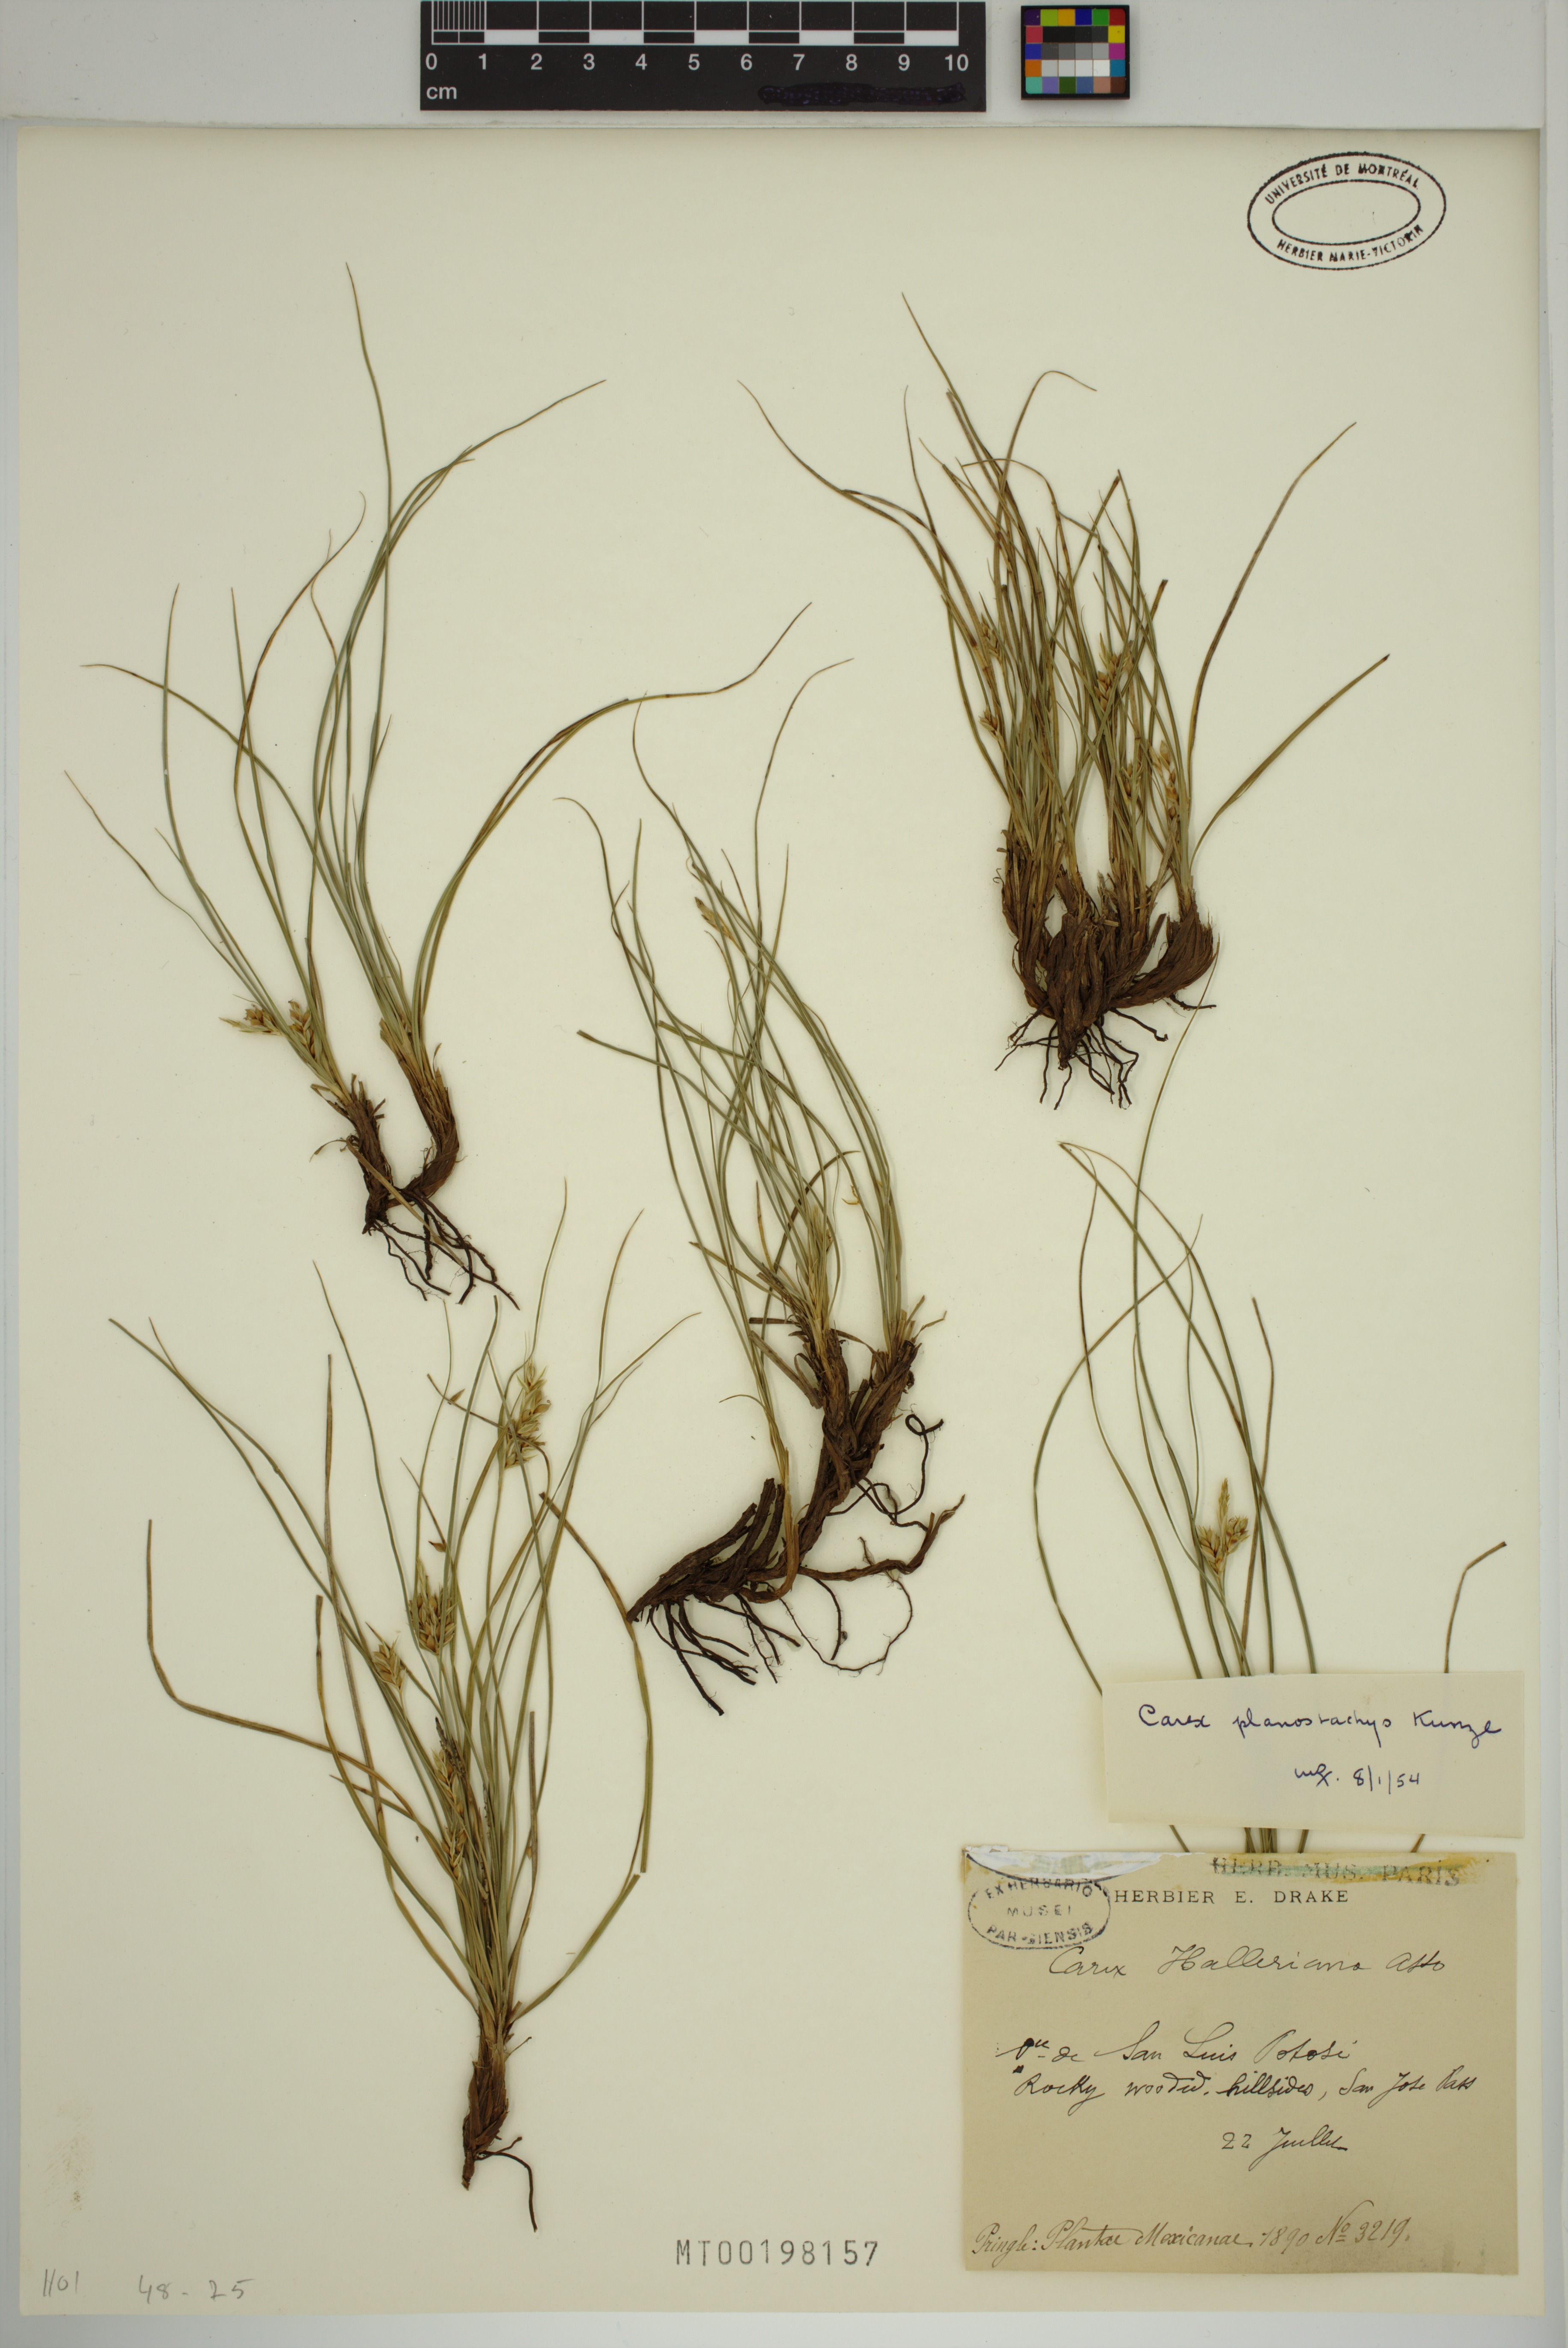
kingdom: Plantae
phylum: Tracheophyta
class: Liliopsida
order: Poales
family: Cyperaceae
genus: Carex
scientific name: Carex halleriana
